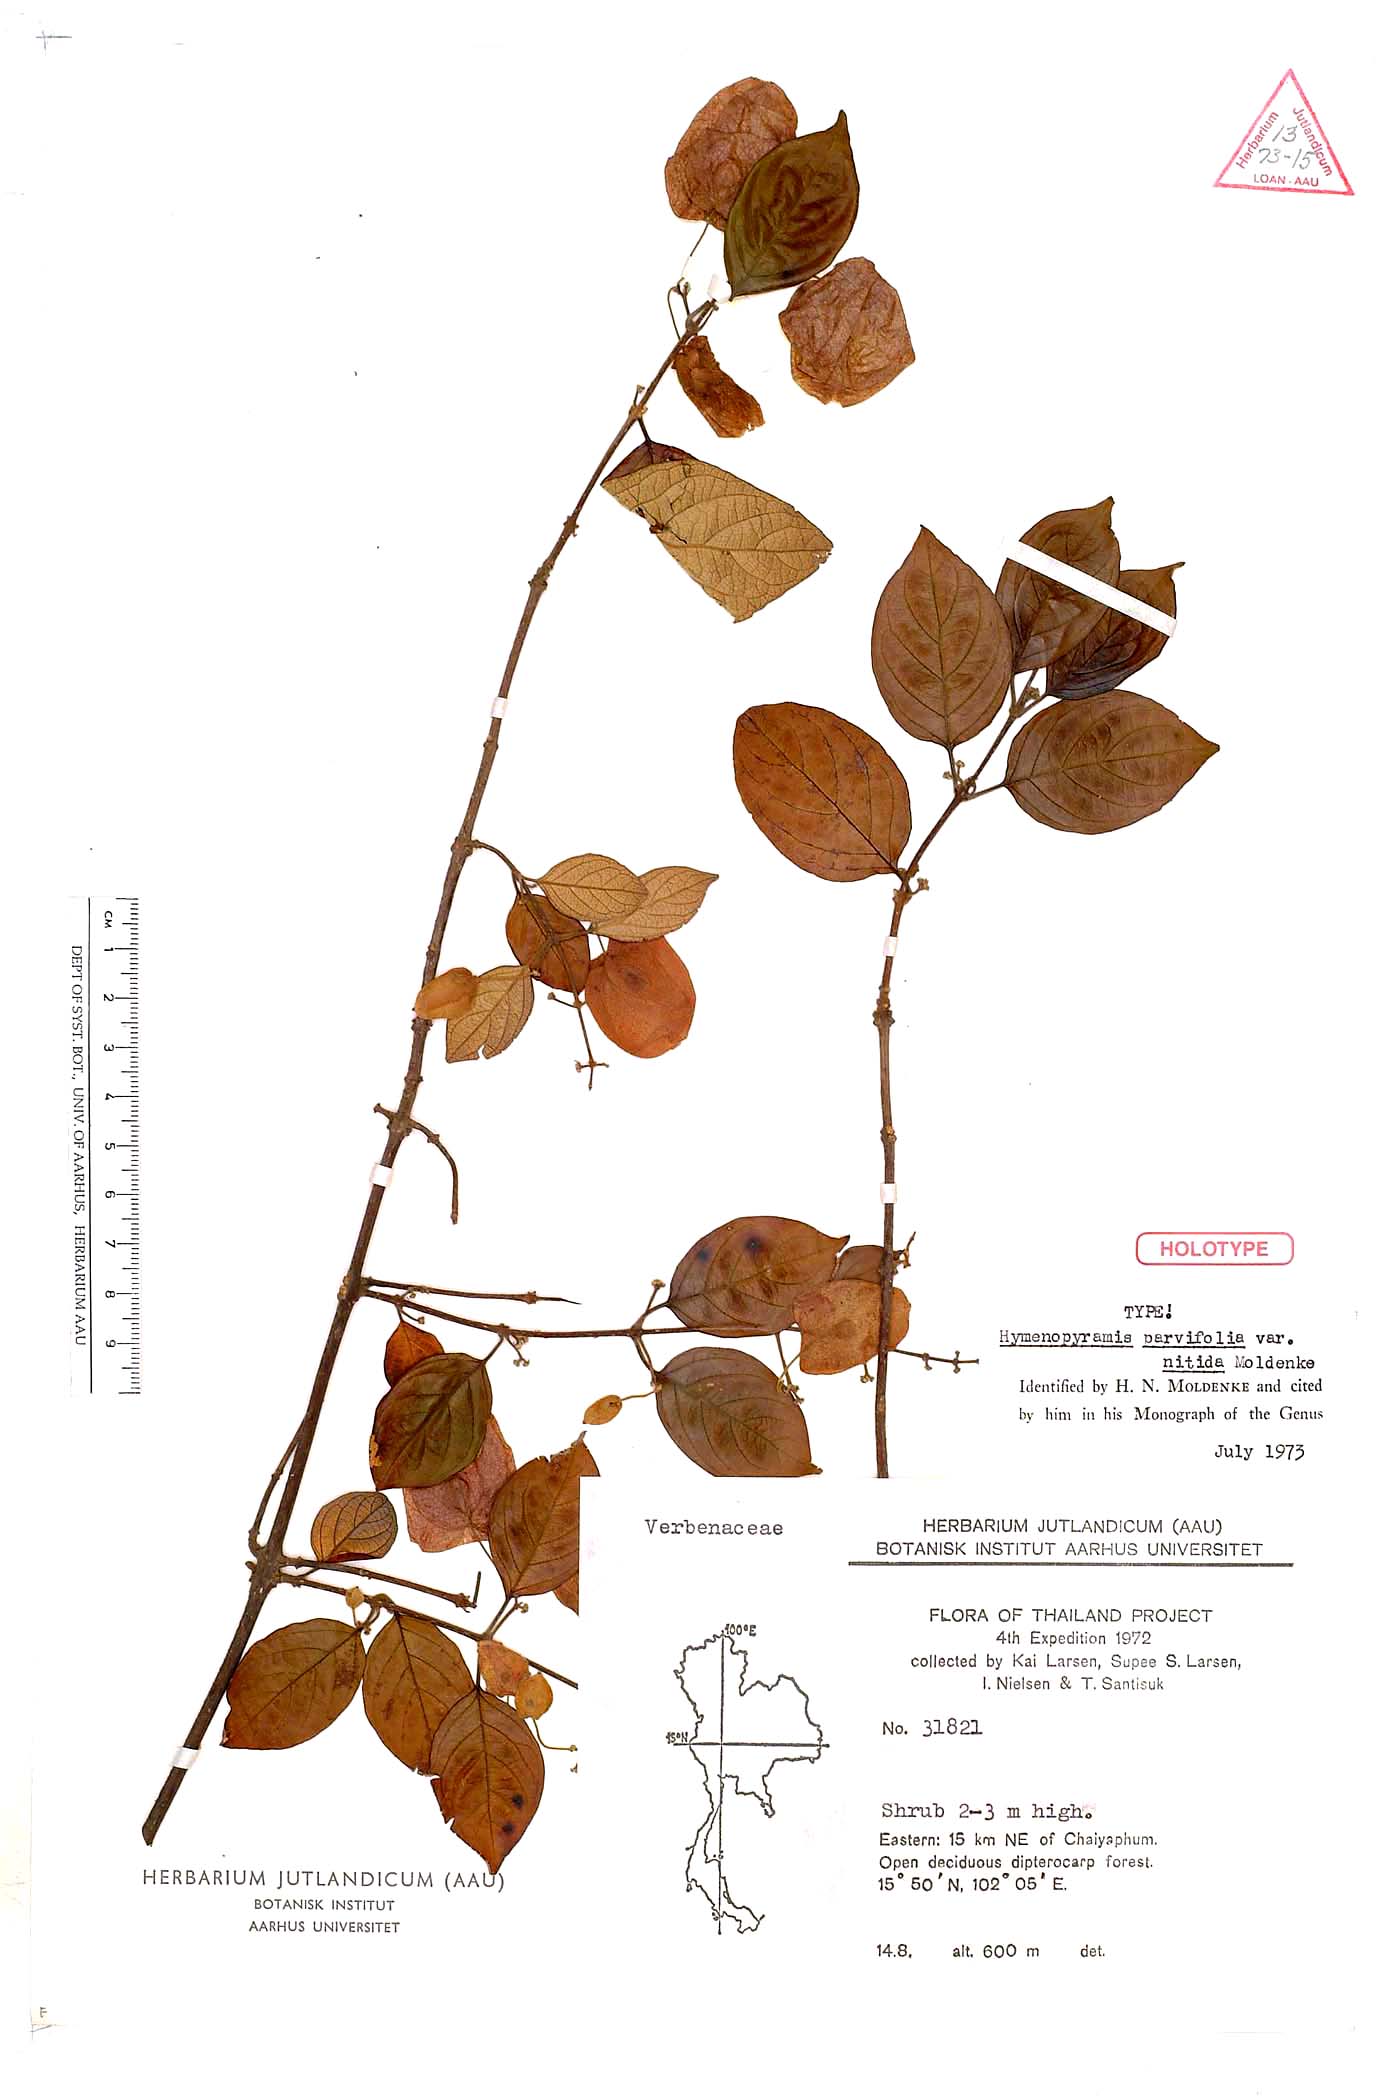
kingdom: Plantae
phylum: Tracheophyta
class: Magnoliopsida
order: Lamiales
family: Lamiaceae
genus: Hymenopyramis
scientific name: Hymenopyramis parvifolia
